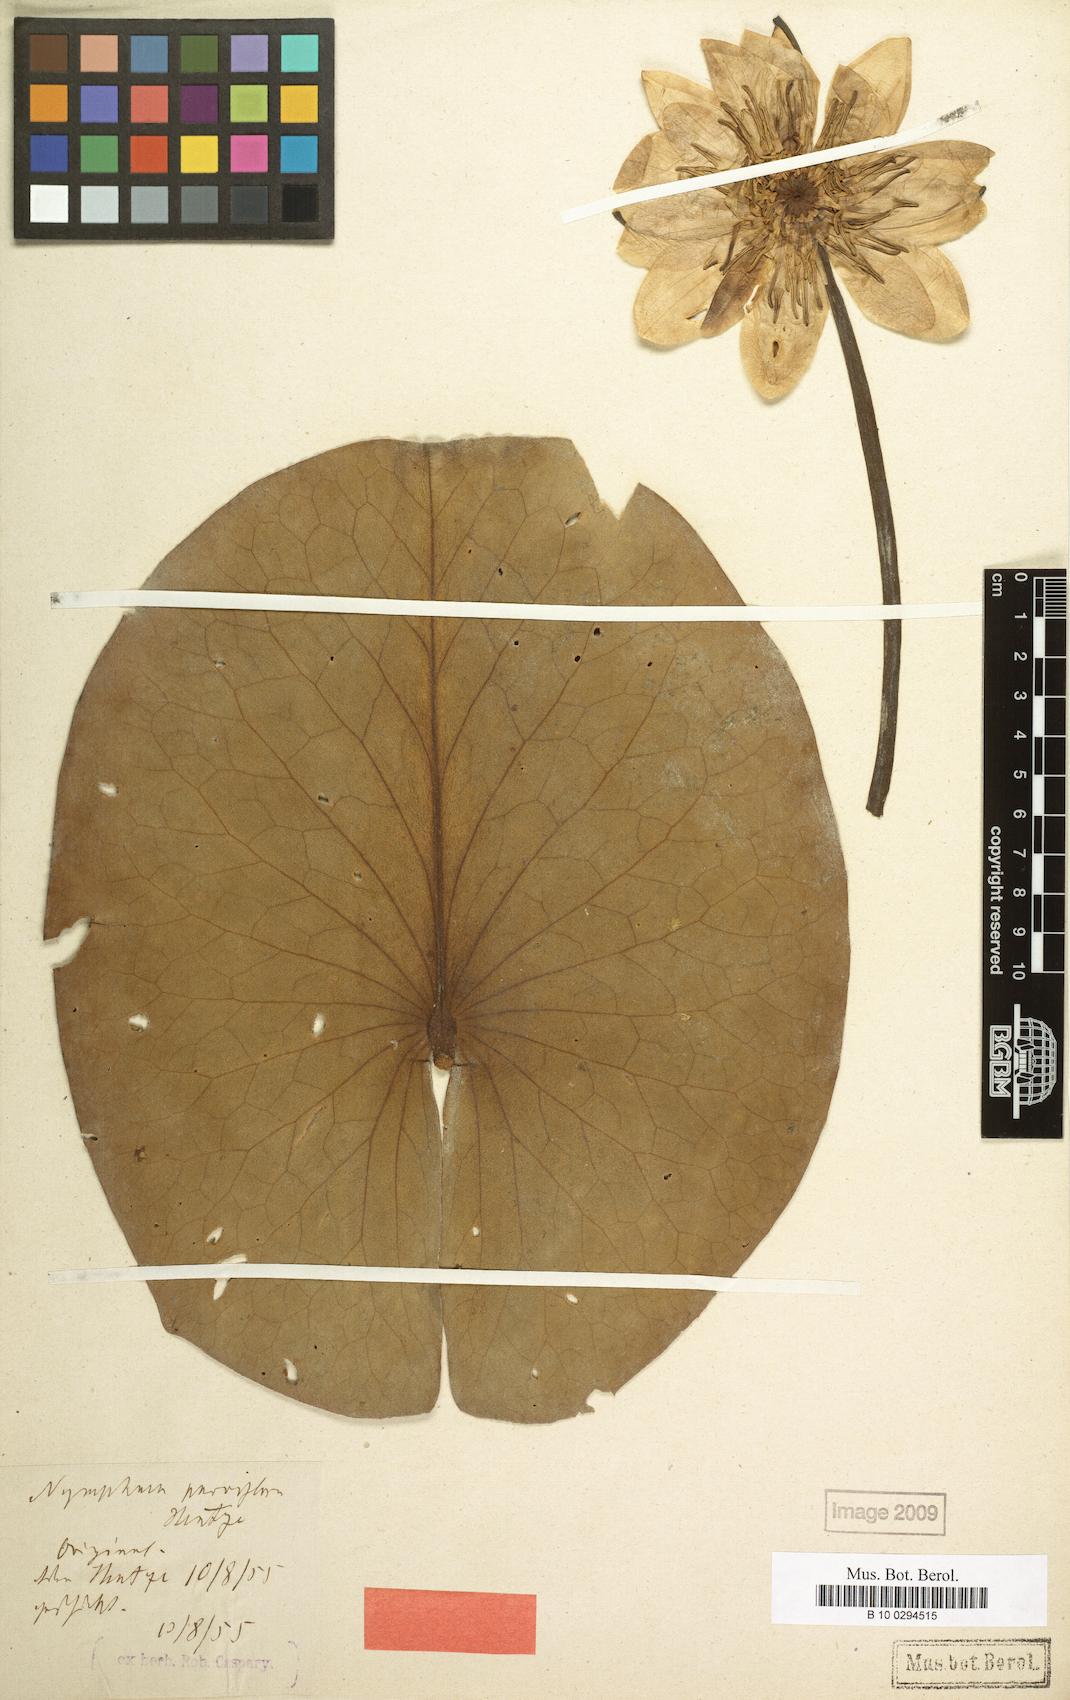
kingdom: Plantae
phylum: Tracheophyta
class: Magnoliopsida
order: Nymphaeales
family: Nymphaeaceae
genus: Nymphaea
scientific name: Nymphaea alba
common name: White water-lily
